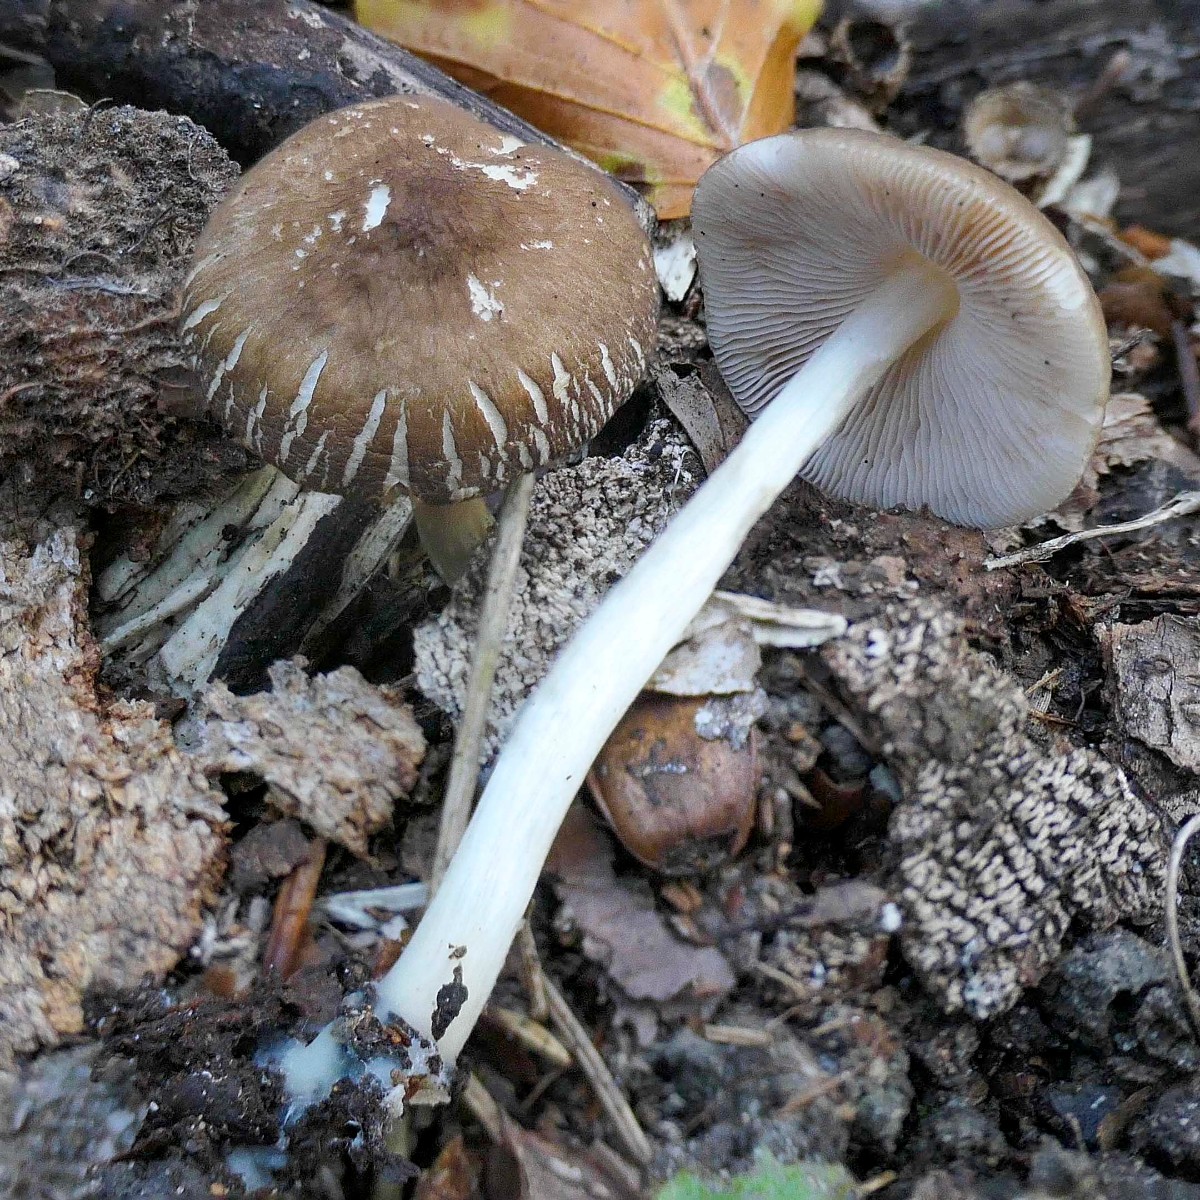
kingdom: Fungi
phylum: Basidiomycota
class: Agaricomycetes
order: Agaricales
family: Pluteaceae
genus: Pluteus
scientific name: Pluteus phlebophorus
